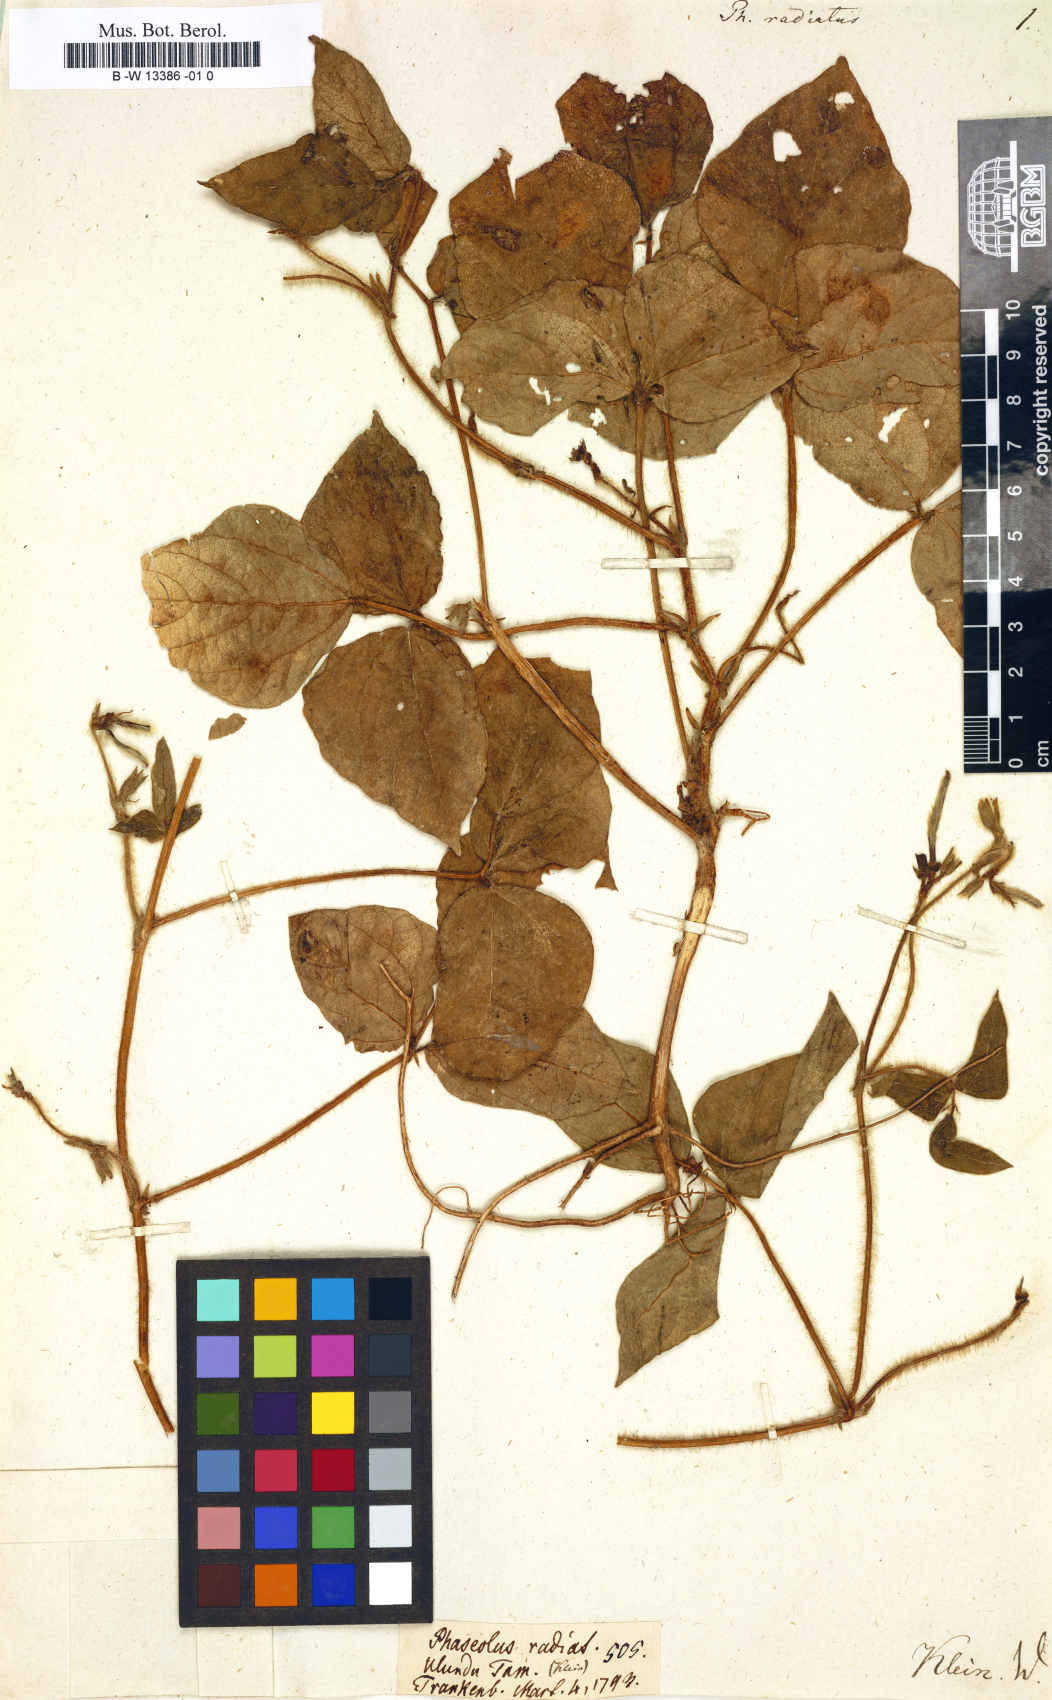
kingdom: Plantae
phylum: Tracheophyta
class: Magnoliopsida
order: Fabales
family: Fabaceae
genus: Vigna
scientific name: Vigna
